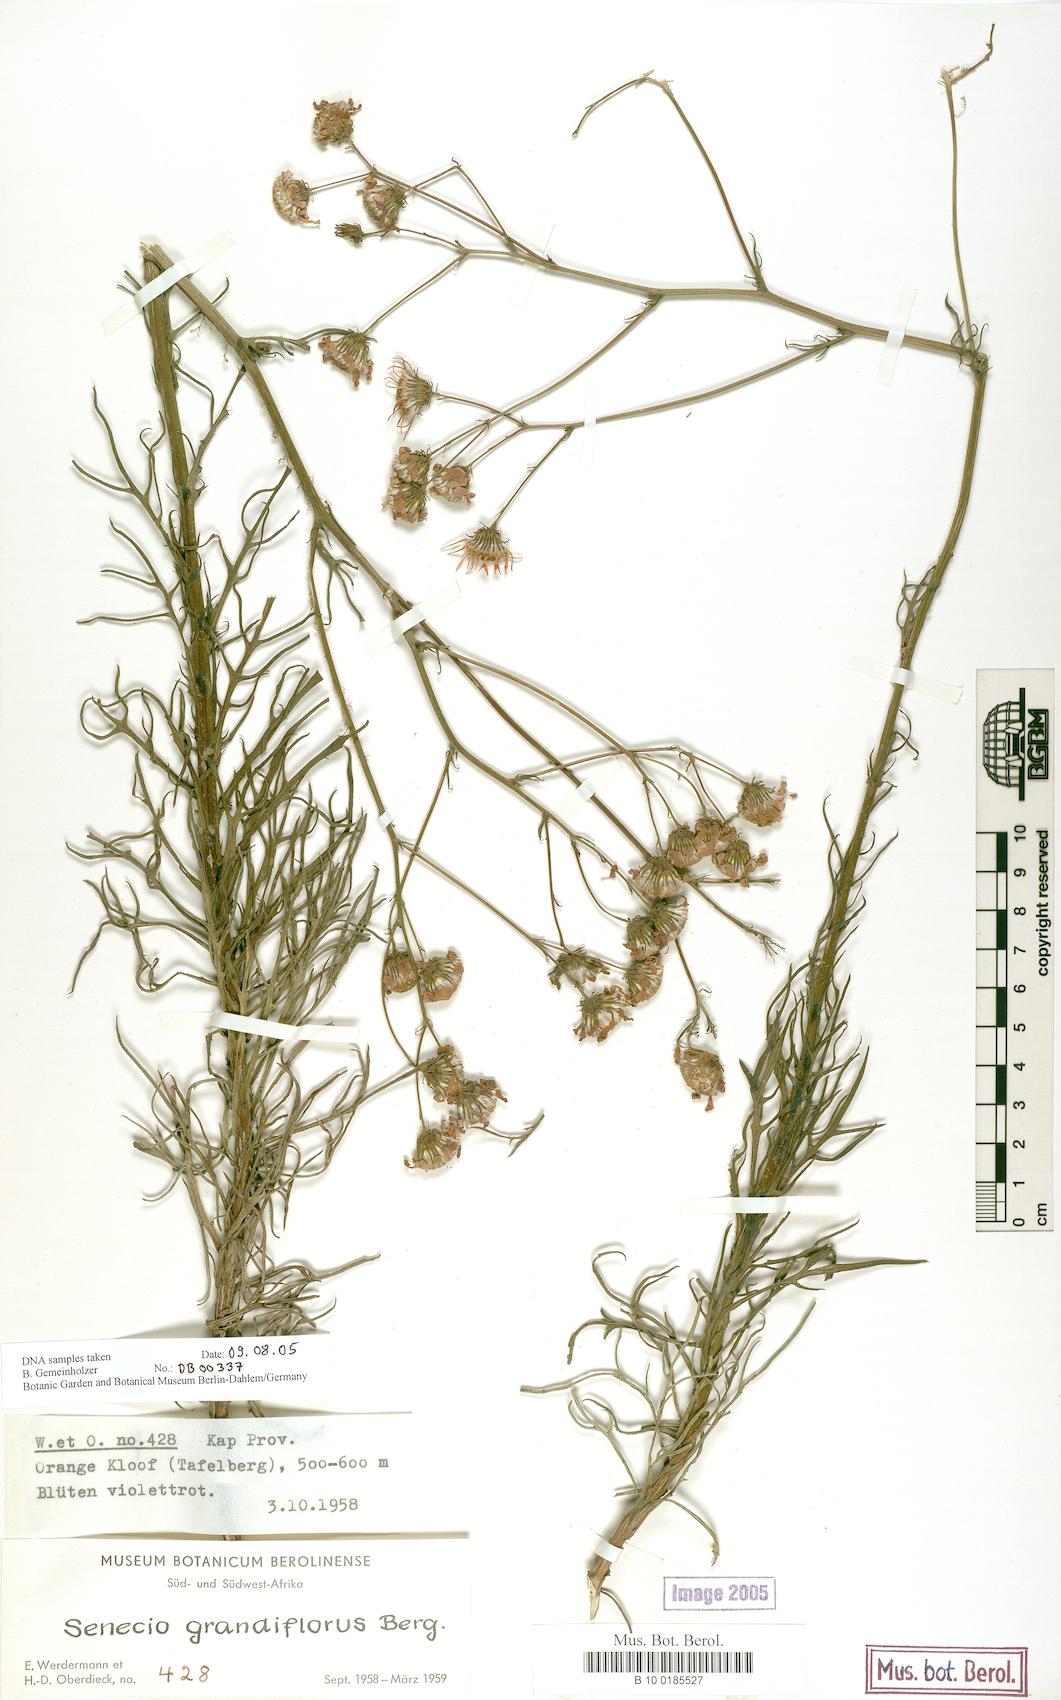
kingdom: Plantae
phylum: Tracheophyta
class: Magnoliopsida
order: Asterales
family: Asteraceae
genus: Senecio
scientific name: Senecio grandiflorus
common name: Purple ragwort
